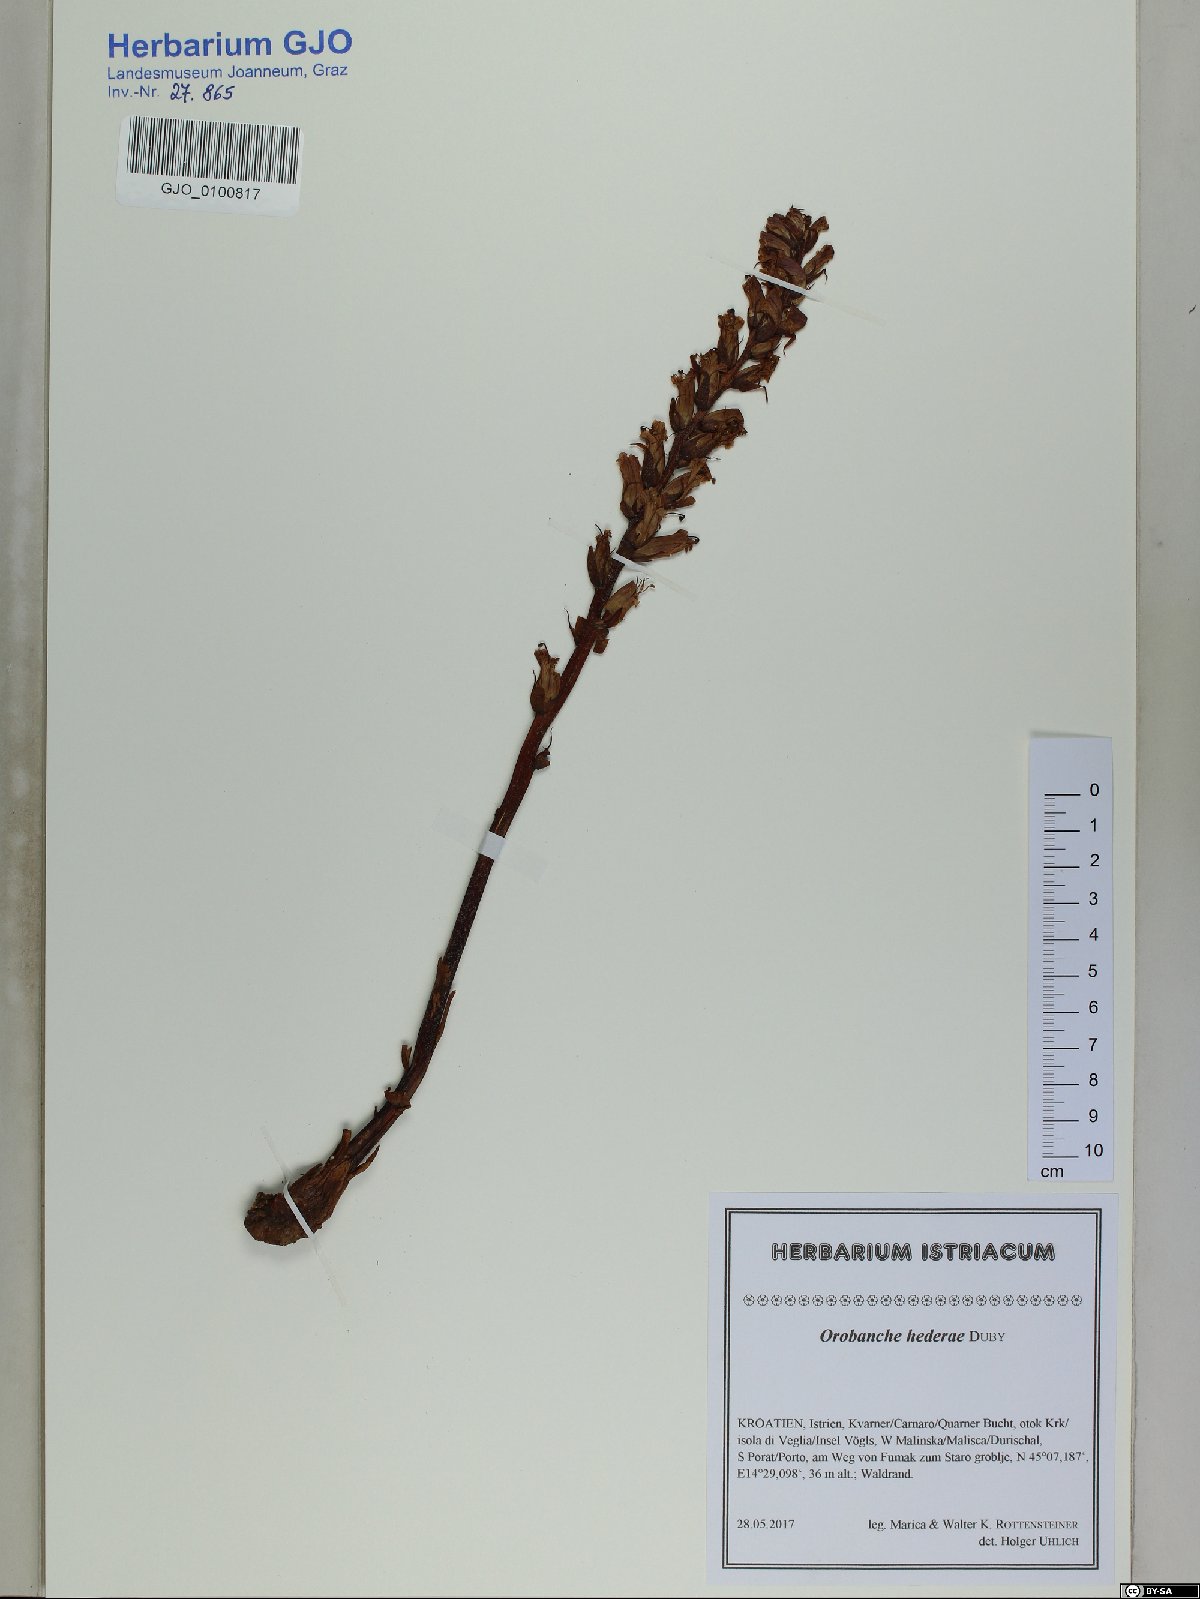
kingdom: Plantae
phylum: Tracheophyta
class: Magnoliopsida
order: Lamiales
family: Orobanchaceae
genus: Orobanche
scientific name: Orobanche hederae
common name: Ivy broomrape
